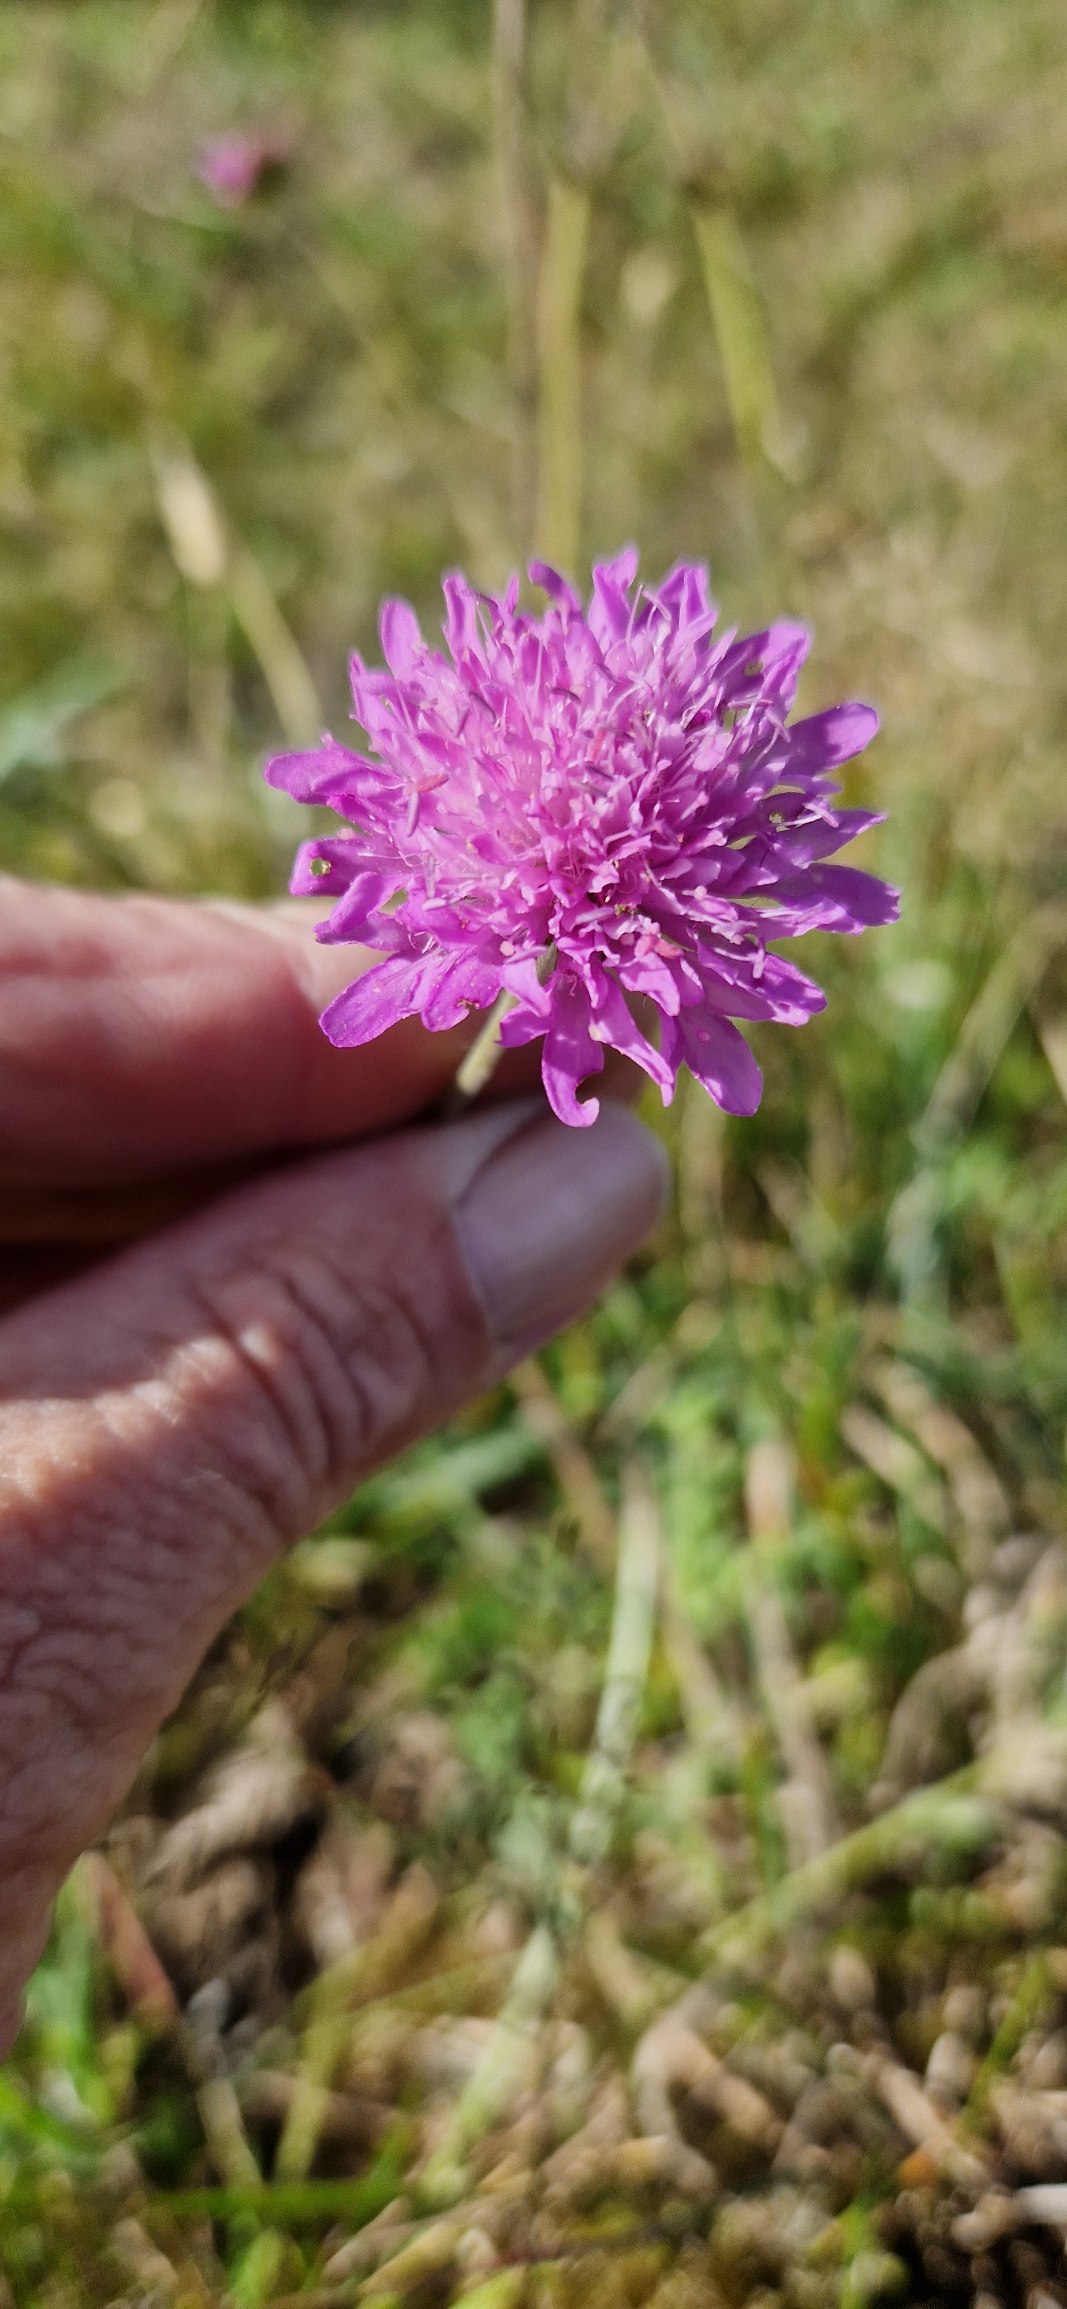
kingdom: Plantae
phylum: Tracheophyta
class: Magnoliopsida
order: Dipsacales
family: Caprifoliaceae
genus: Knautia
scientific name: Knautia arvensis
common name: Blåhat
